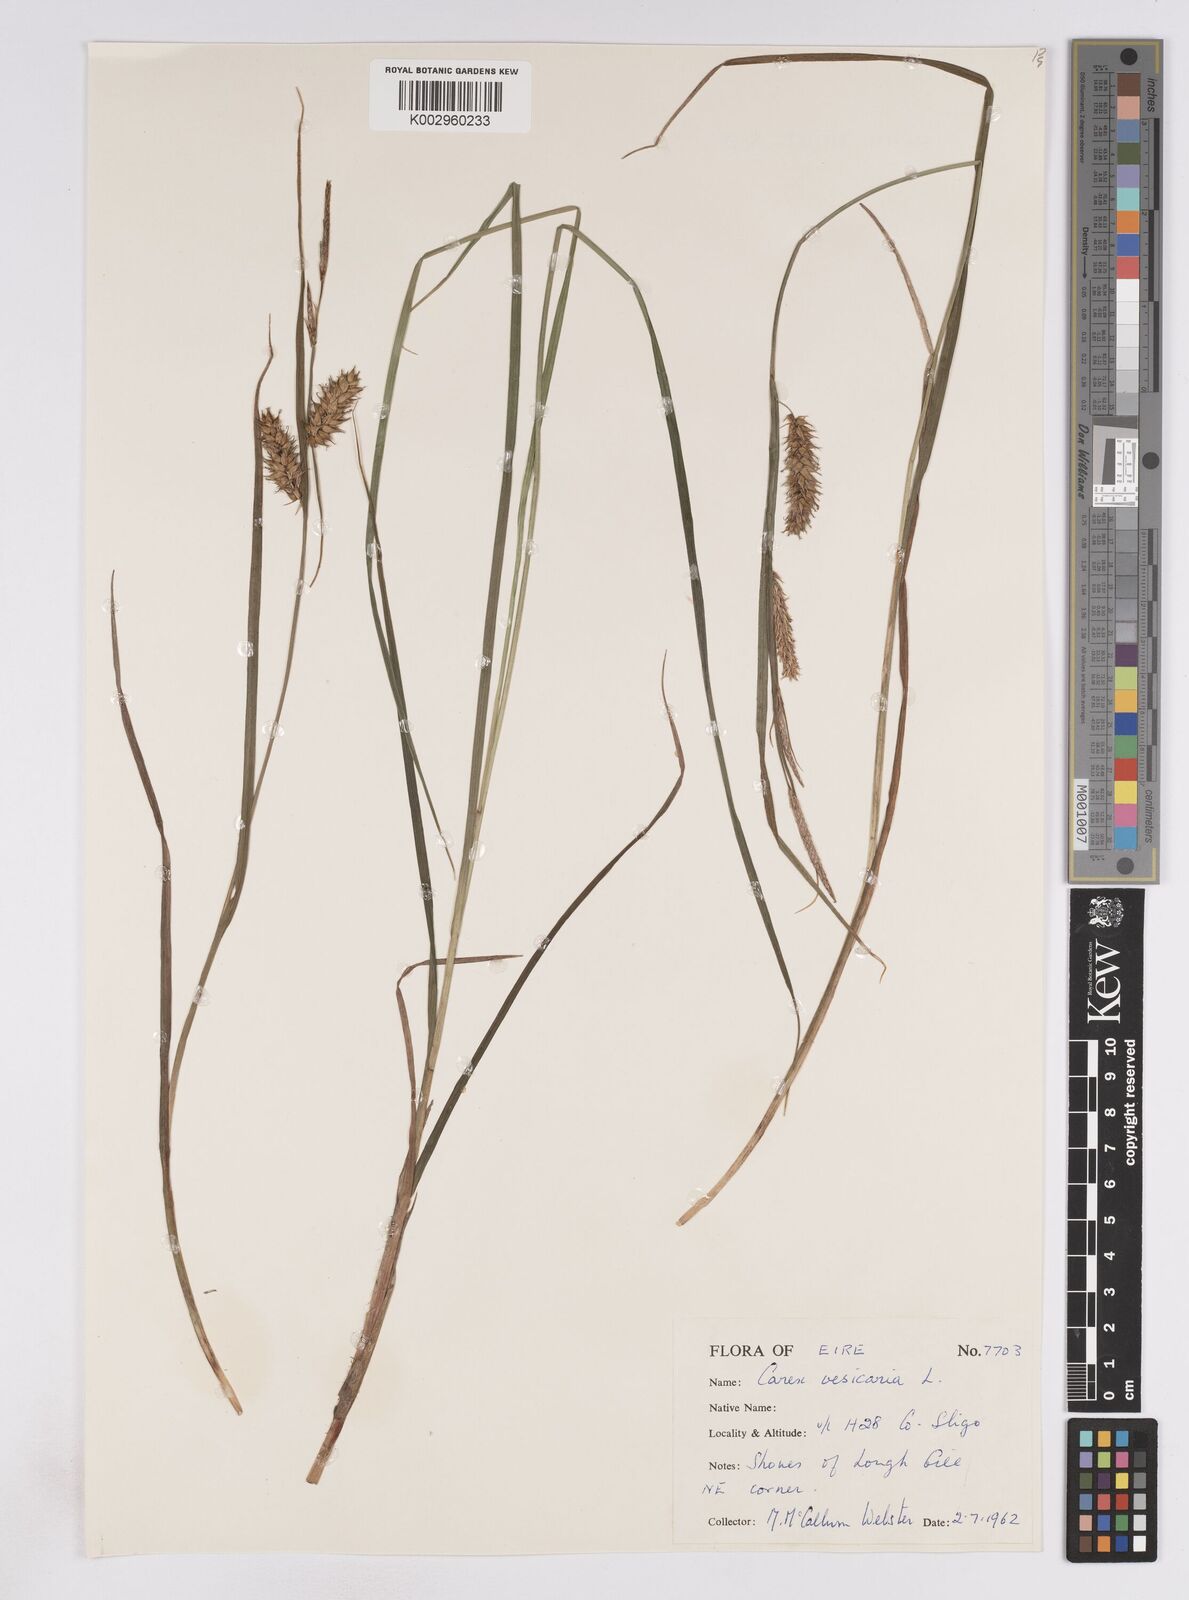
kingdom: Plantae
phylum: Tracheophyta
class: Liliopsida
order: Poales
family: Cyperaceae
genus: Carex
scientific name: Carex vesicaria
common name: Bladder-sedge
